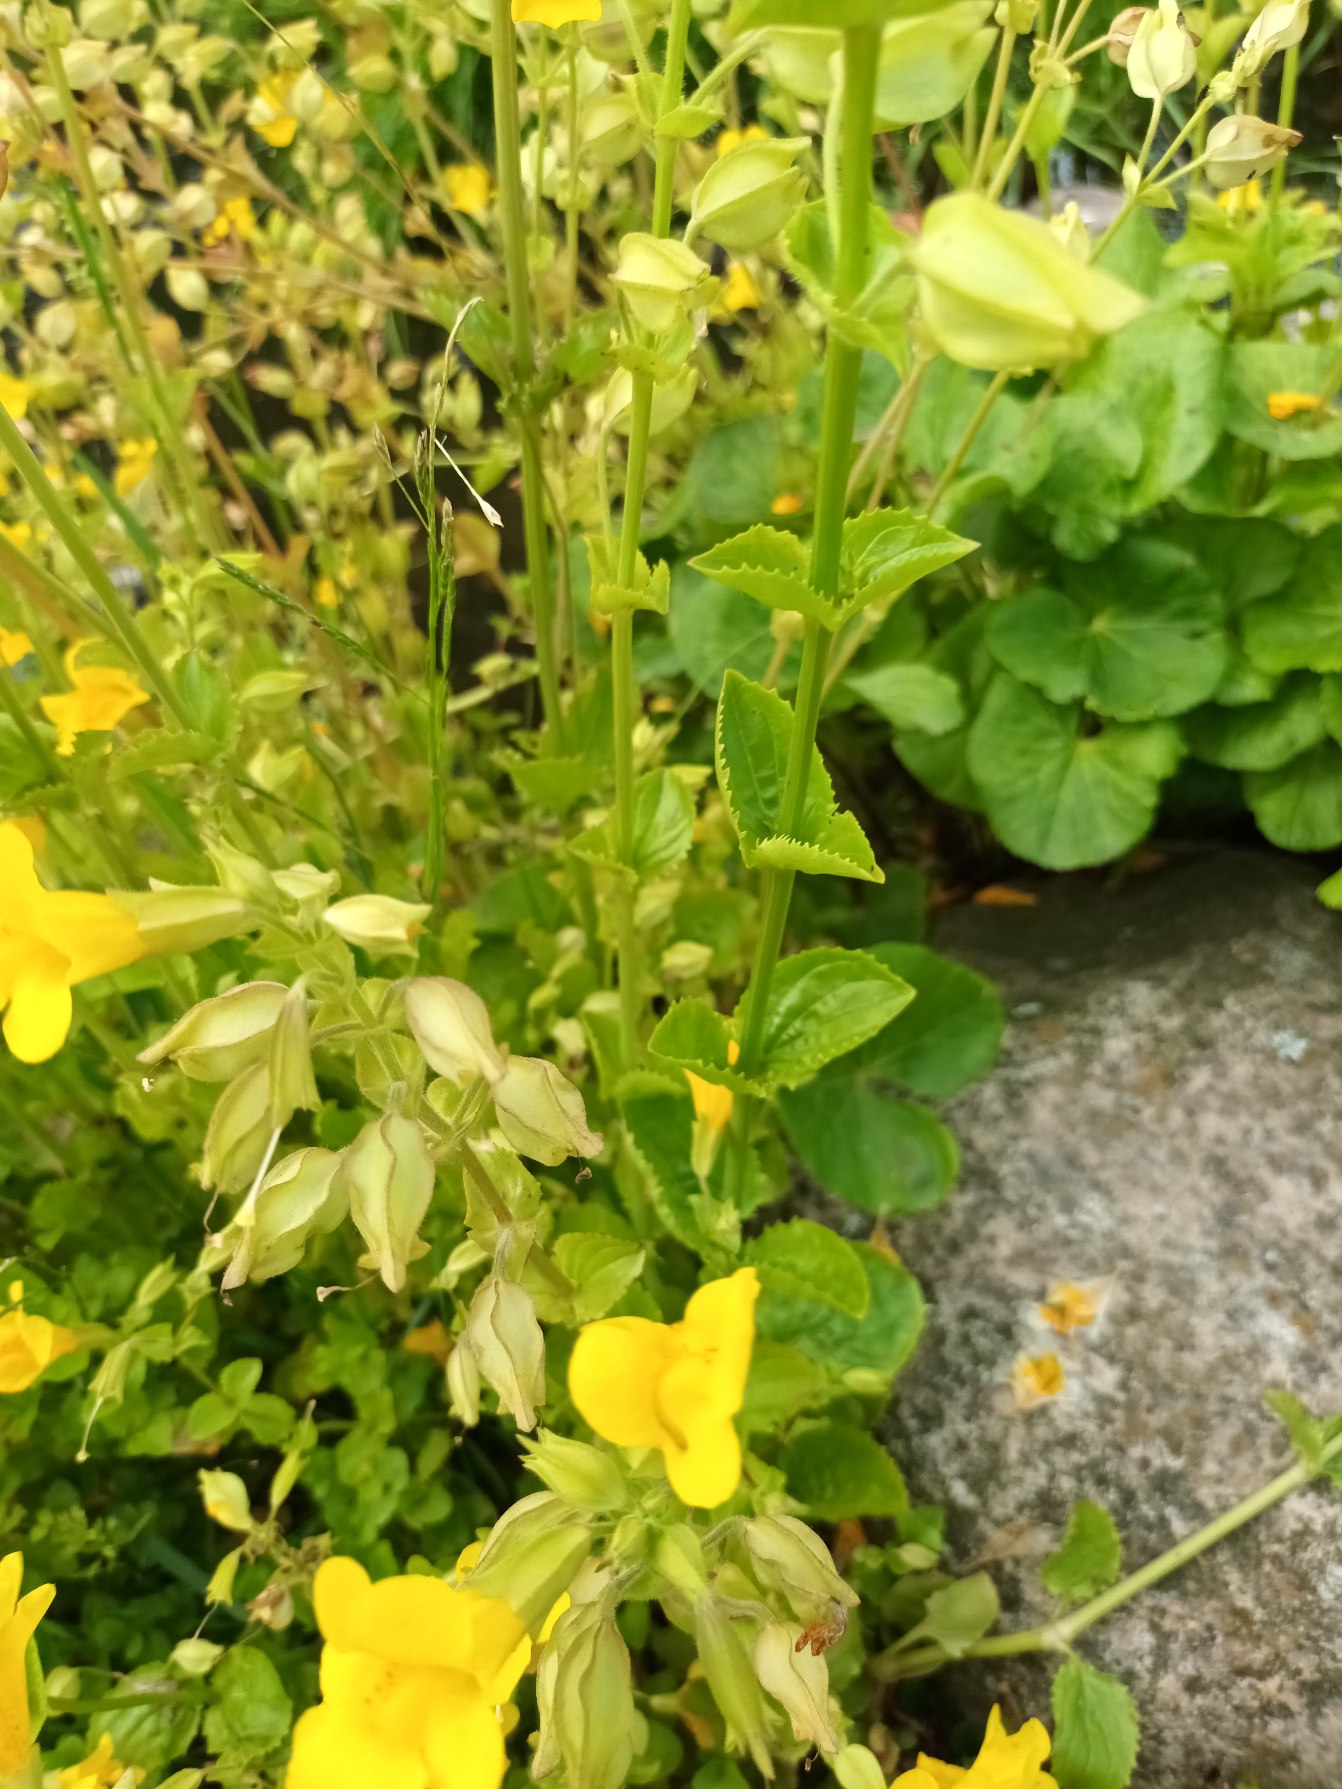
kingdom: Plantae
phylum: Tracheophyta
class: Magnoliopsida
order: Lamiales
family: Phrymaceae
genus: Erythranthe
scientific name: Erythranthe guttata
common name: Abeblomst
